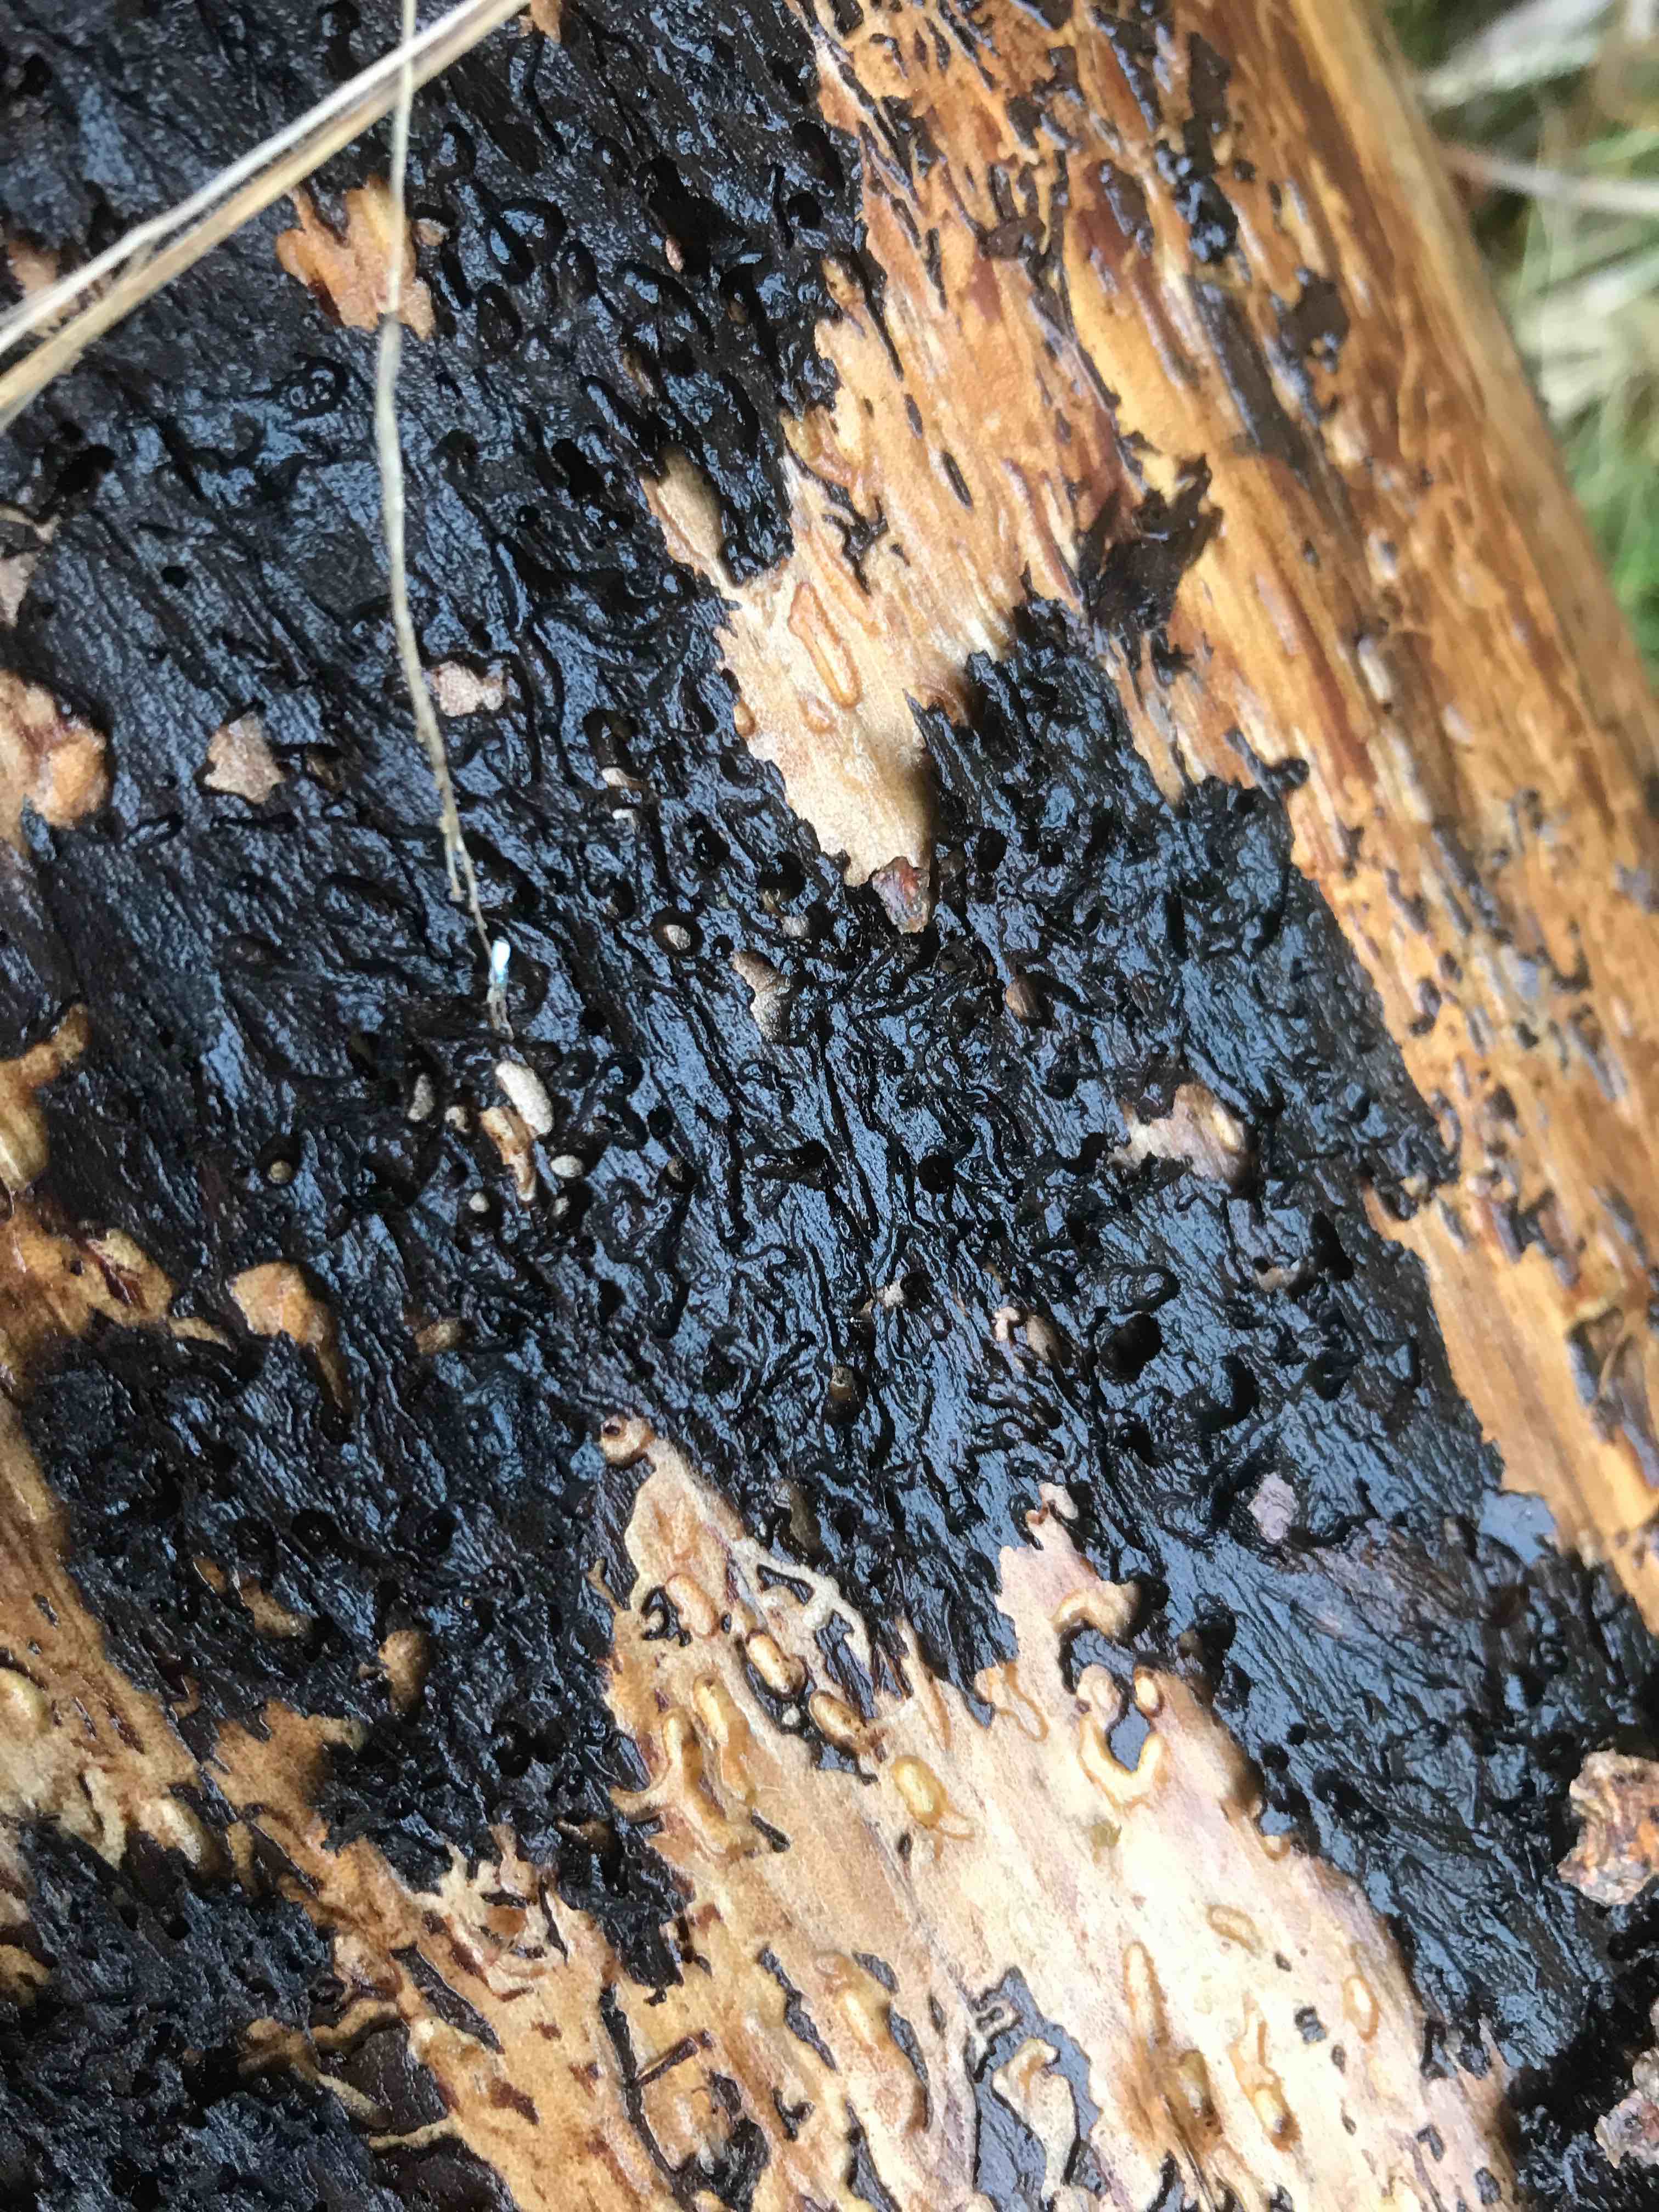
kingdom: Fungi
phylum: Basidiomycota
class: Agaricomycetes
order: Auriculariales
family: Auriculariaceae
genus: Exidia
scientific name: Exidia pithya
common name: gran-bævretop
